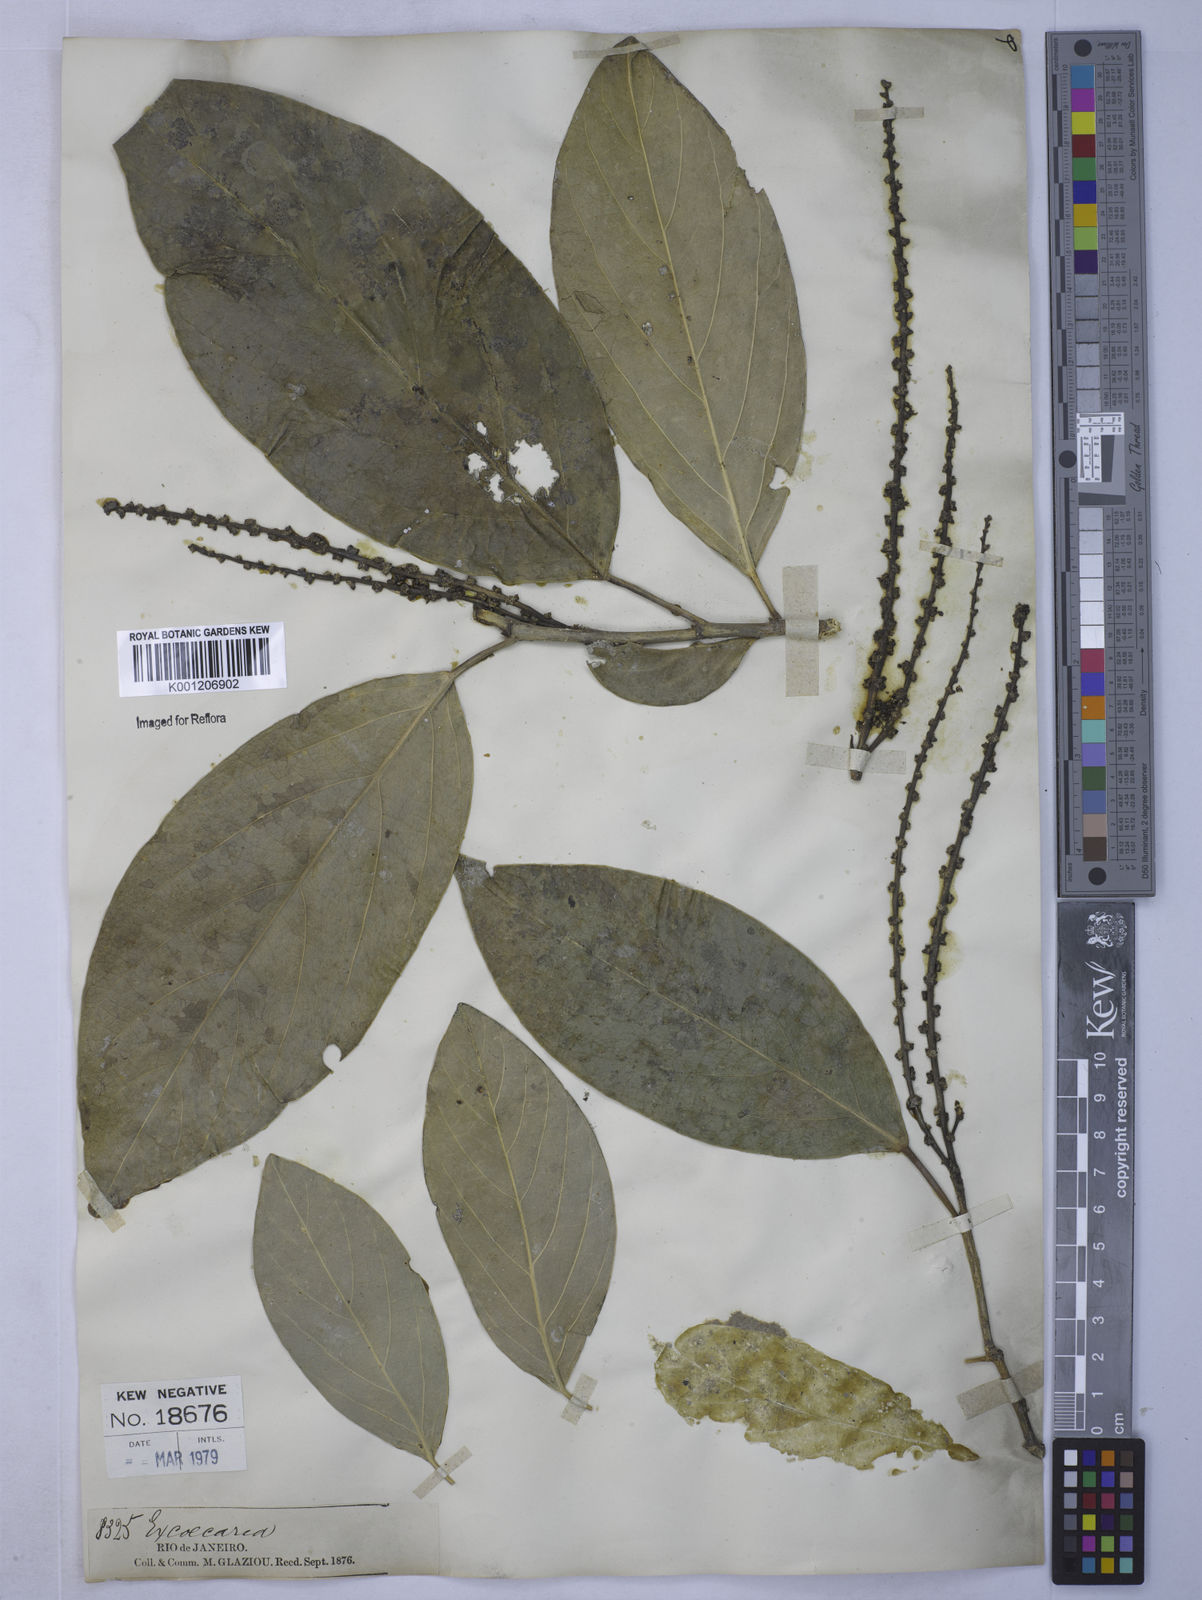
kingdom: Plantae
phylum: Tracheophyta
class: Magnoliopsida
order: Malpighiales
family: Euphorbiaceae
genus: Caryodendron
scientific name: Caryodendron
